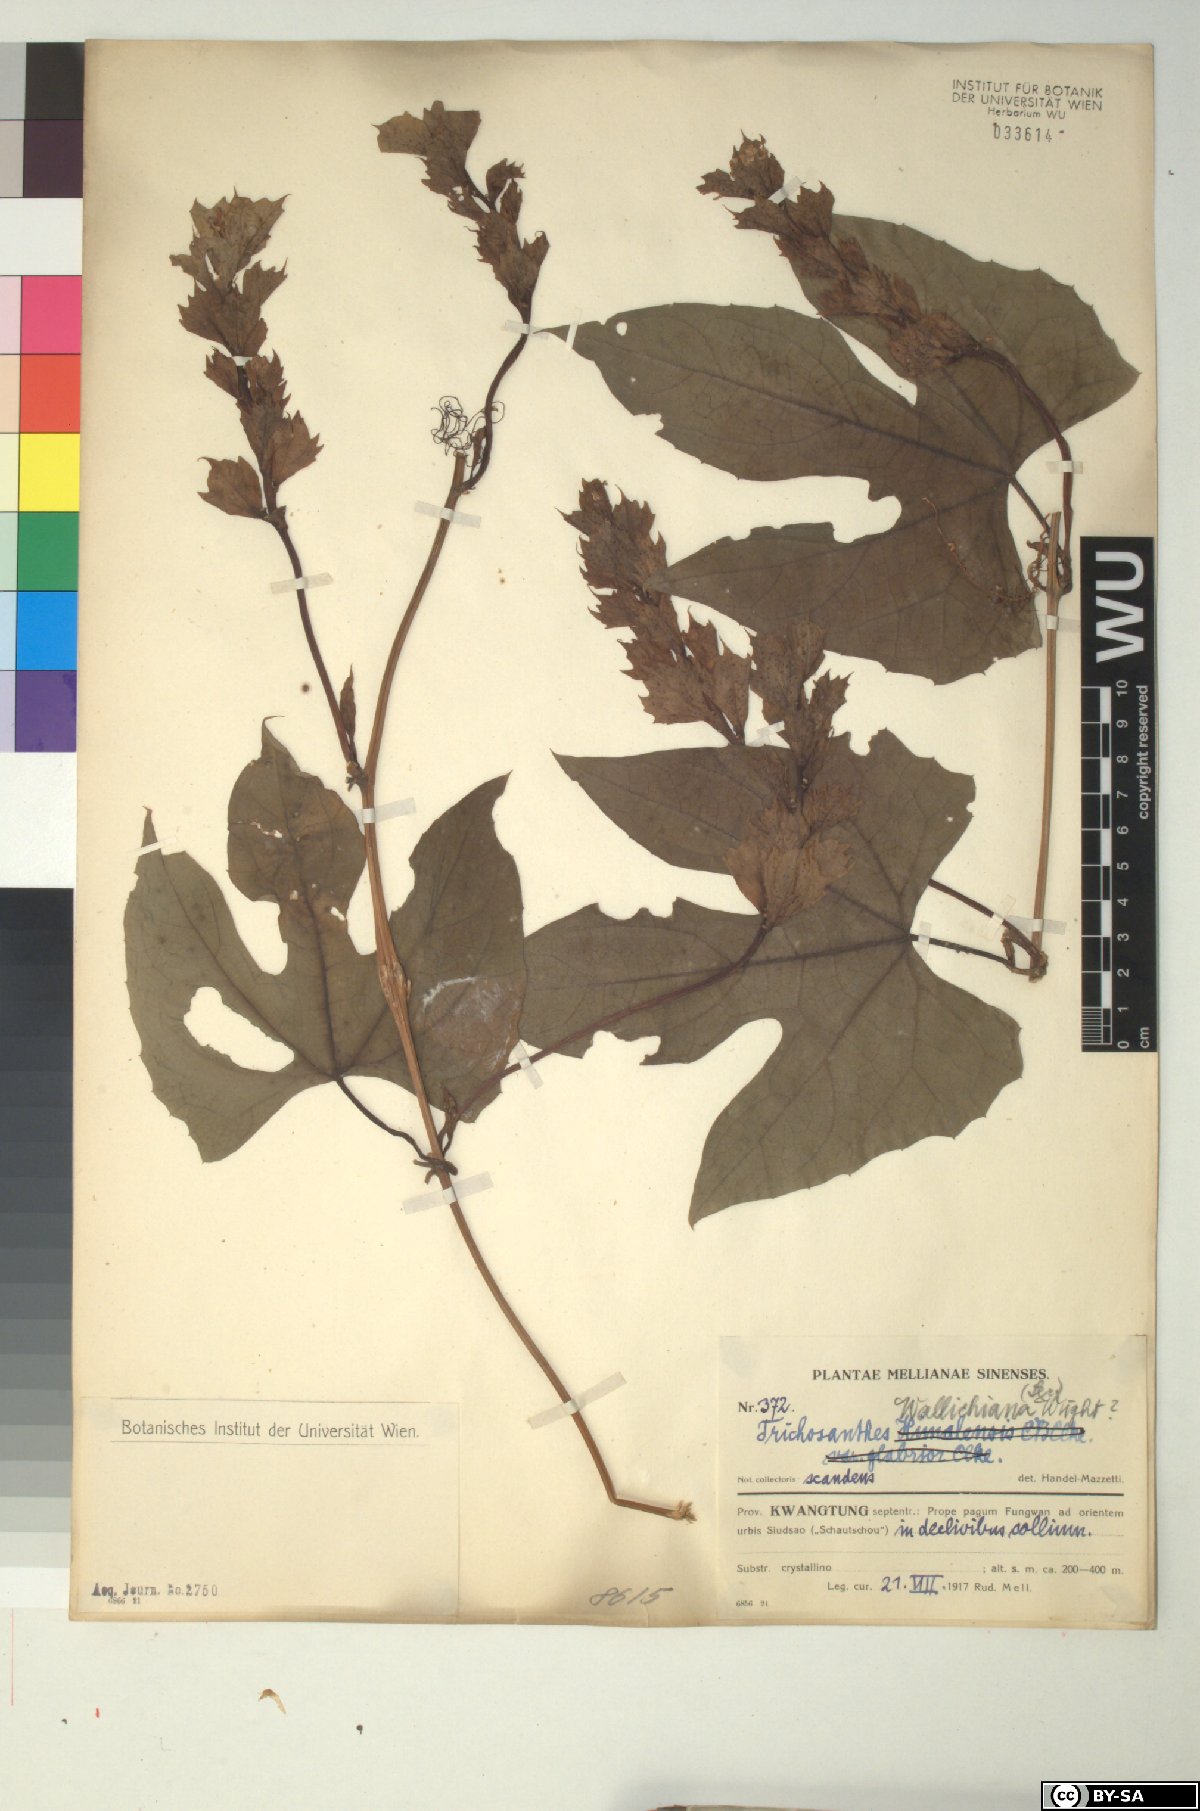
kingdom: Plantae
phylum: Tracheophyta
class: Magnoliopsida
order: Cucurbitales
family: Cucurbitaceae
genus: Trichosanthes
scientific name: Trichosanthes wallichiana
